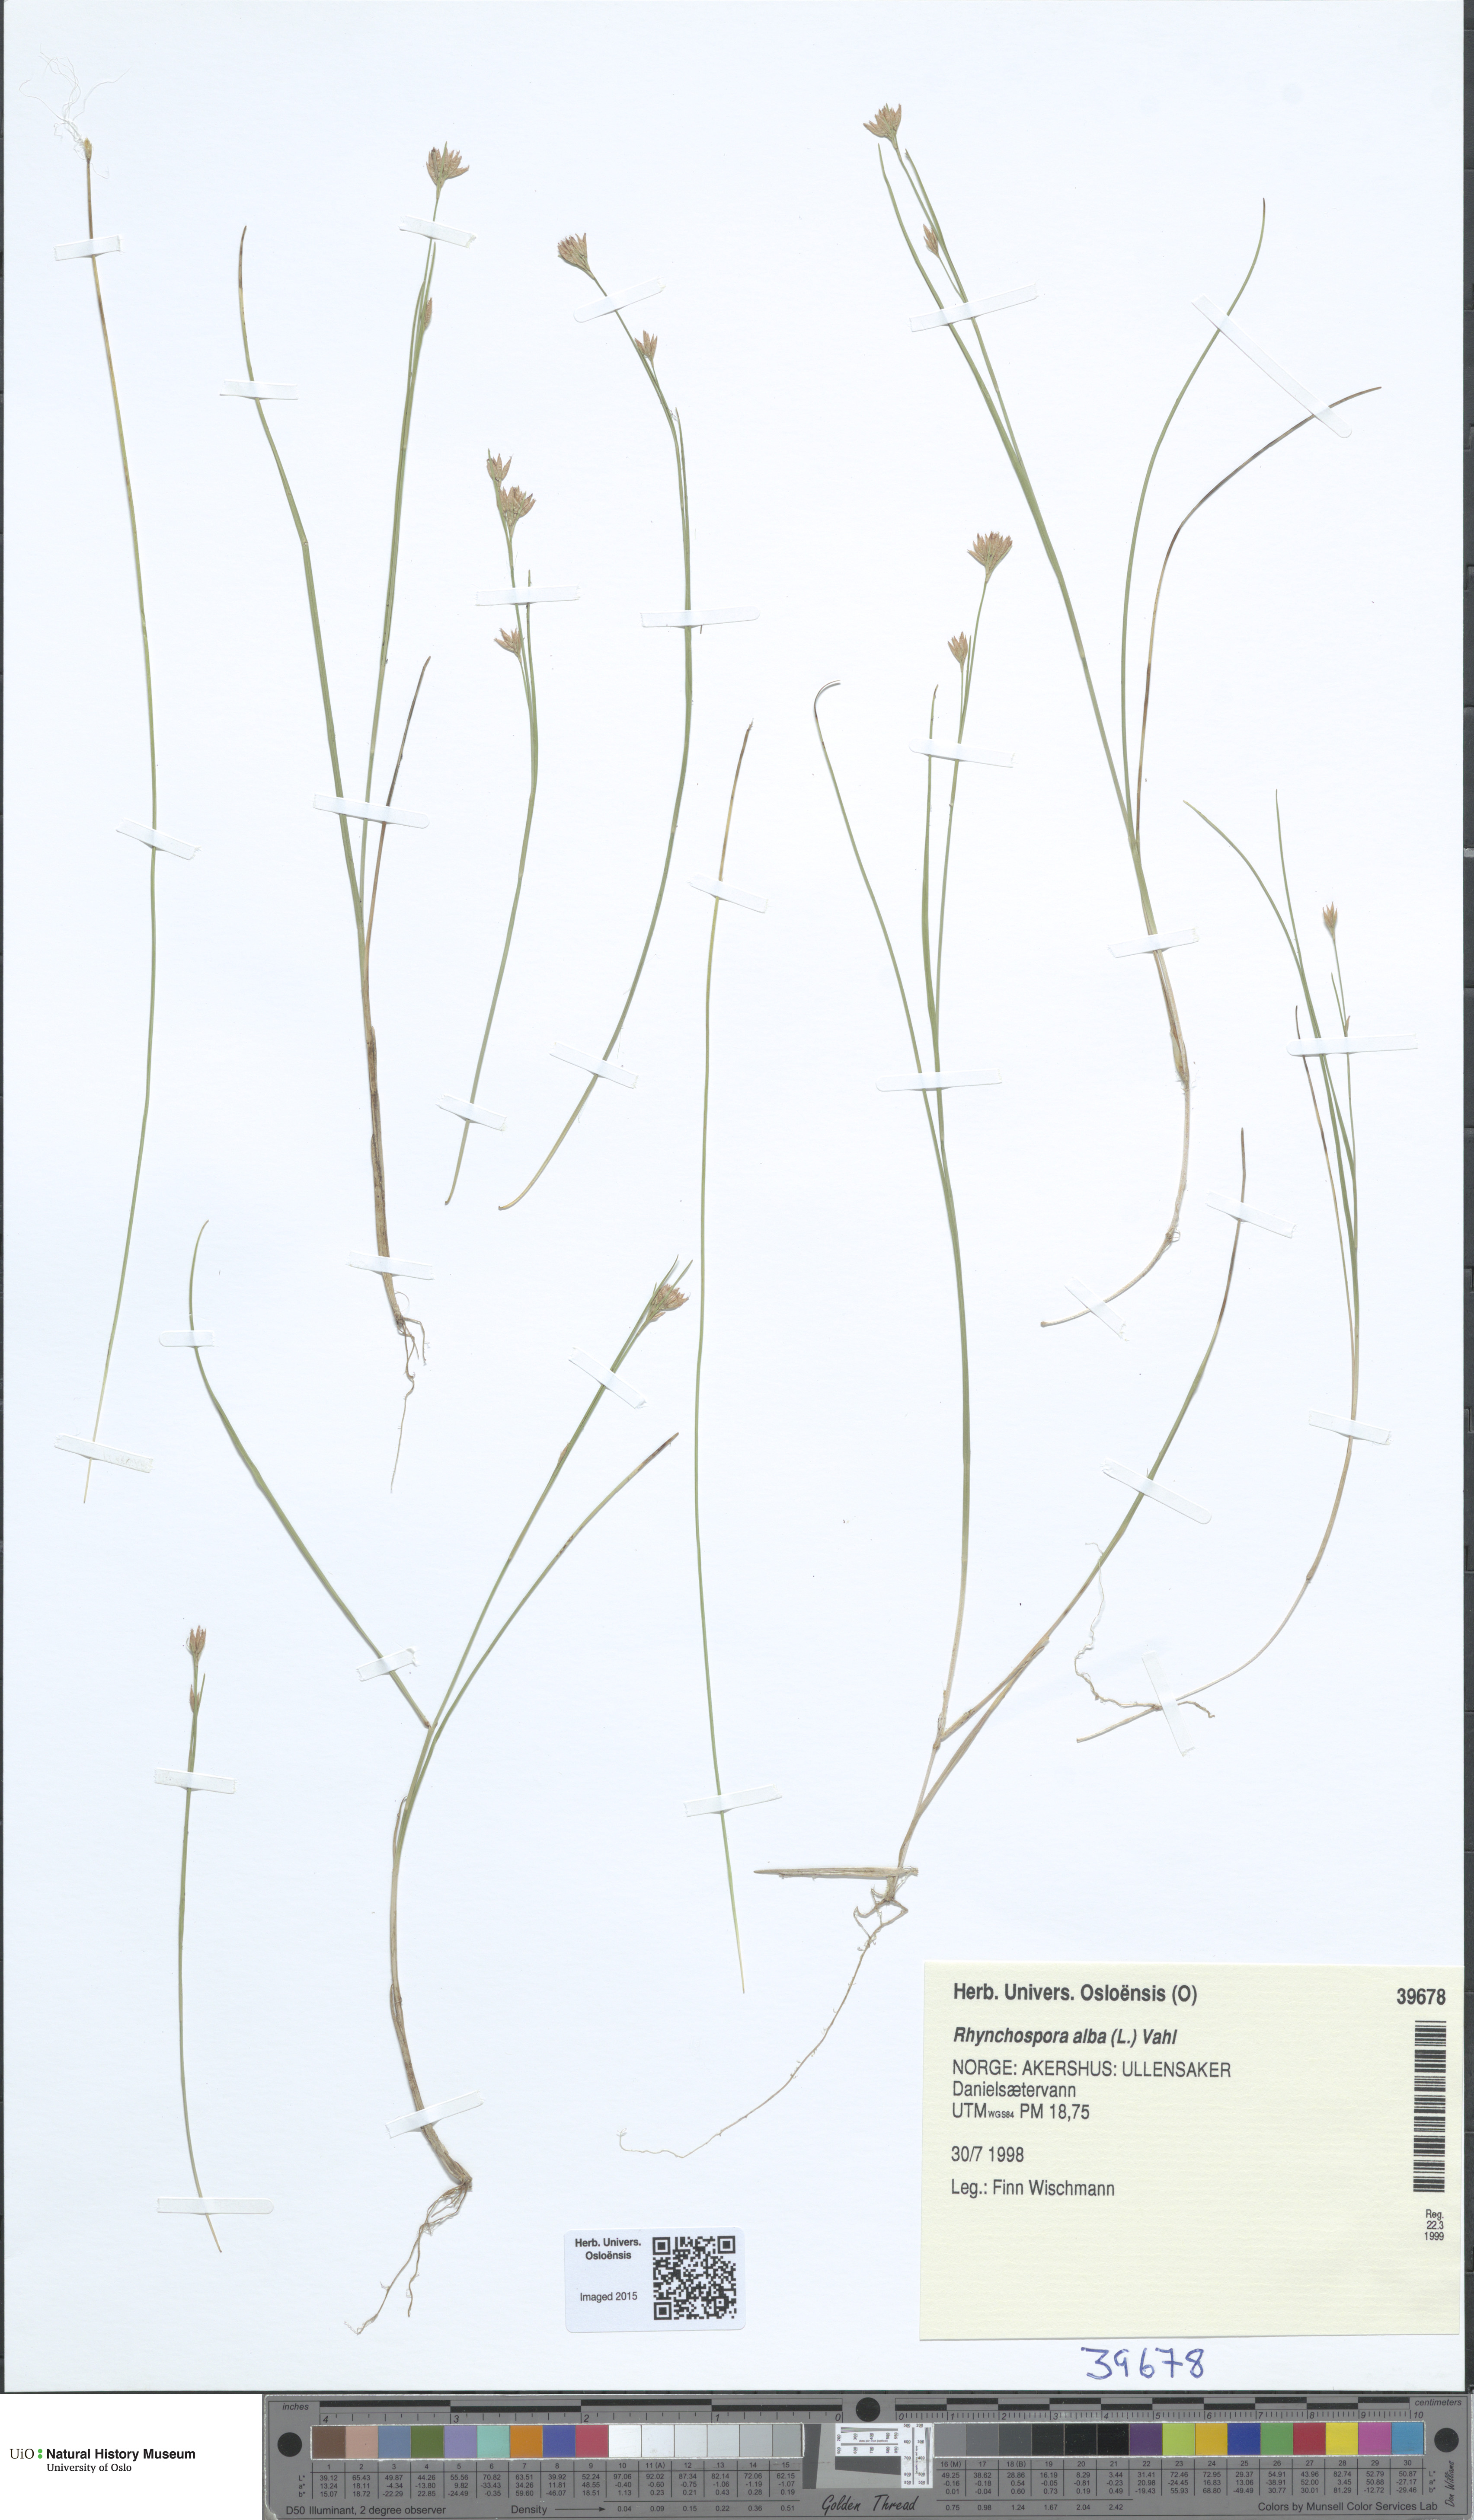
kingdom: Plantae
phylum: Tracheophyta
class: Liliopsida
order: Poales
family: Cyperaceae
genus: Rhynchospora
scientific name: Rhynchospora alba
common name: White beak-sedge
